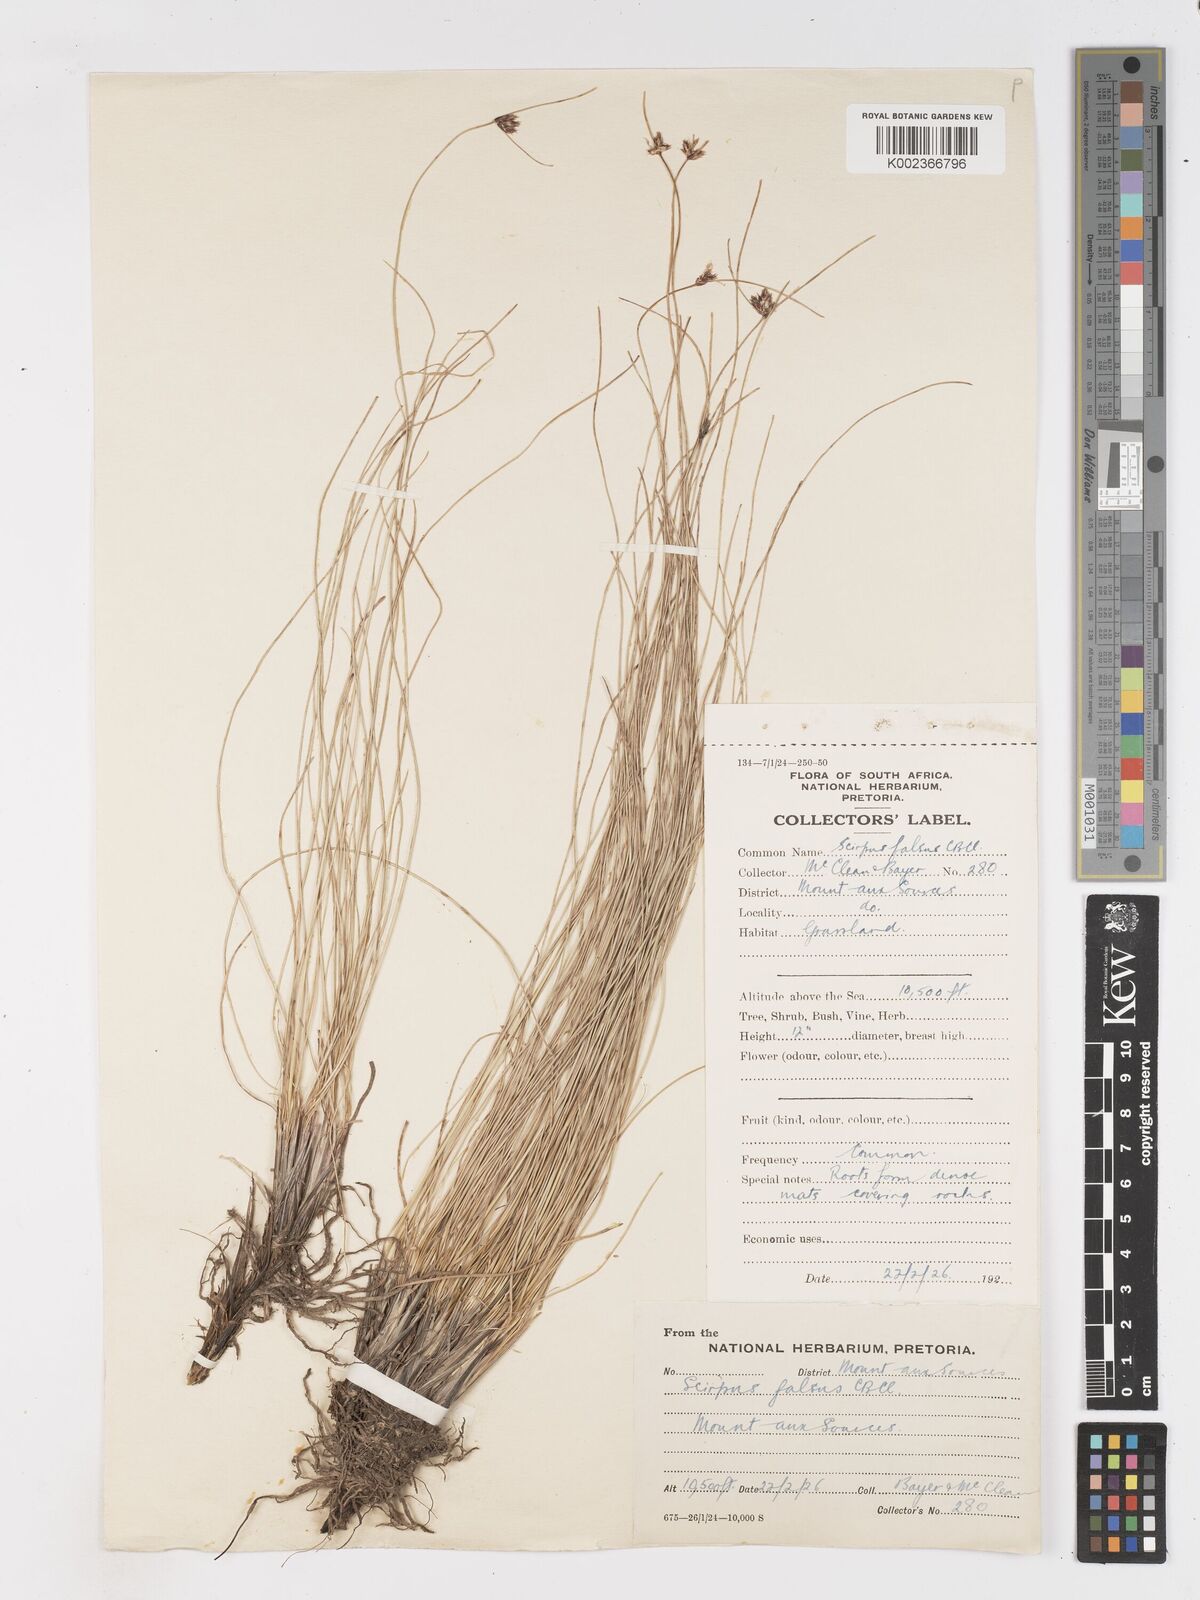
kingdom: Plantae
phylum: Tracheophyta
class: Liliopsida
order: Poales
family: Cyperaceae
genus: Dracoscirpoides
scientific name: Dracoscirpoides falsa
